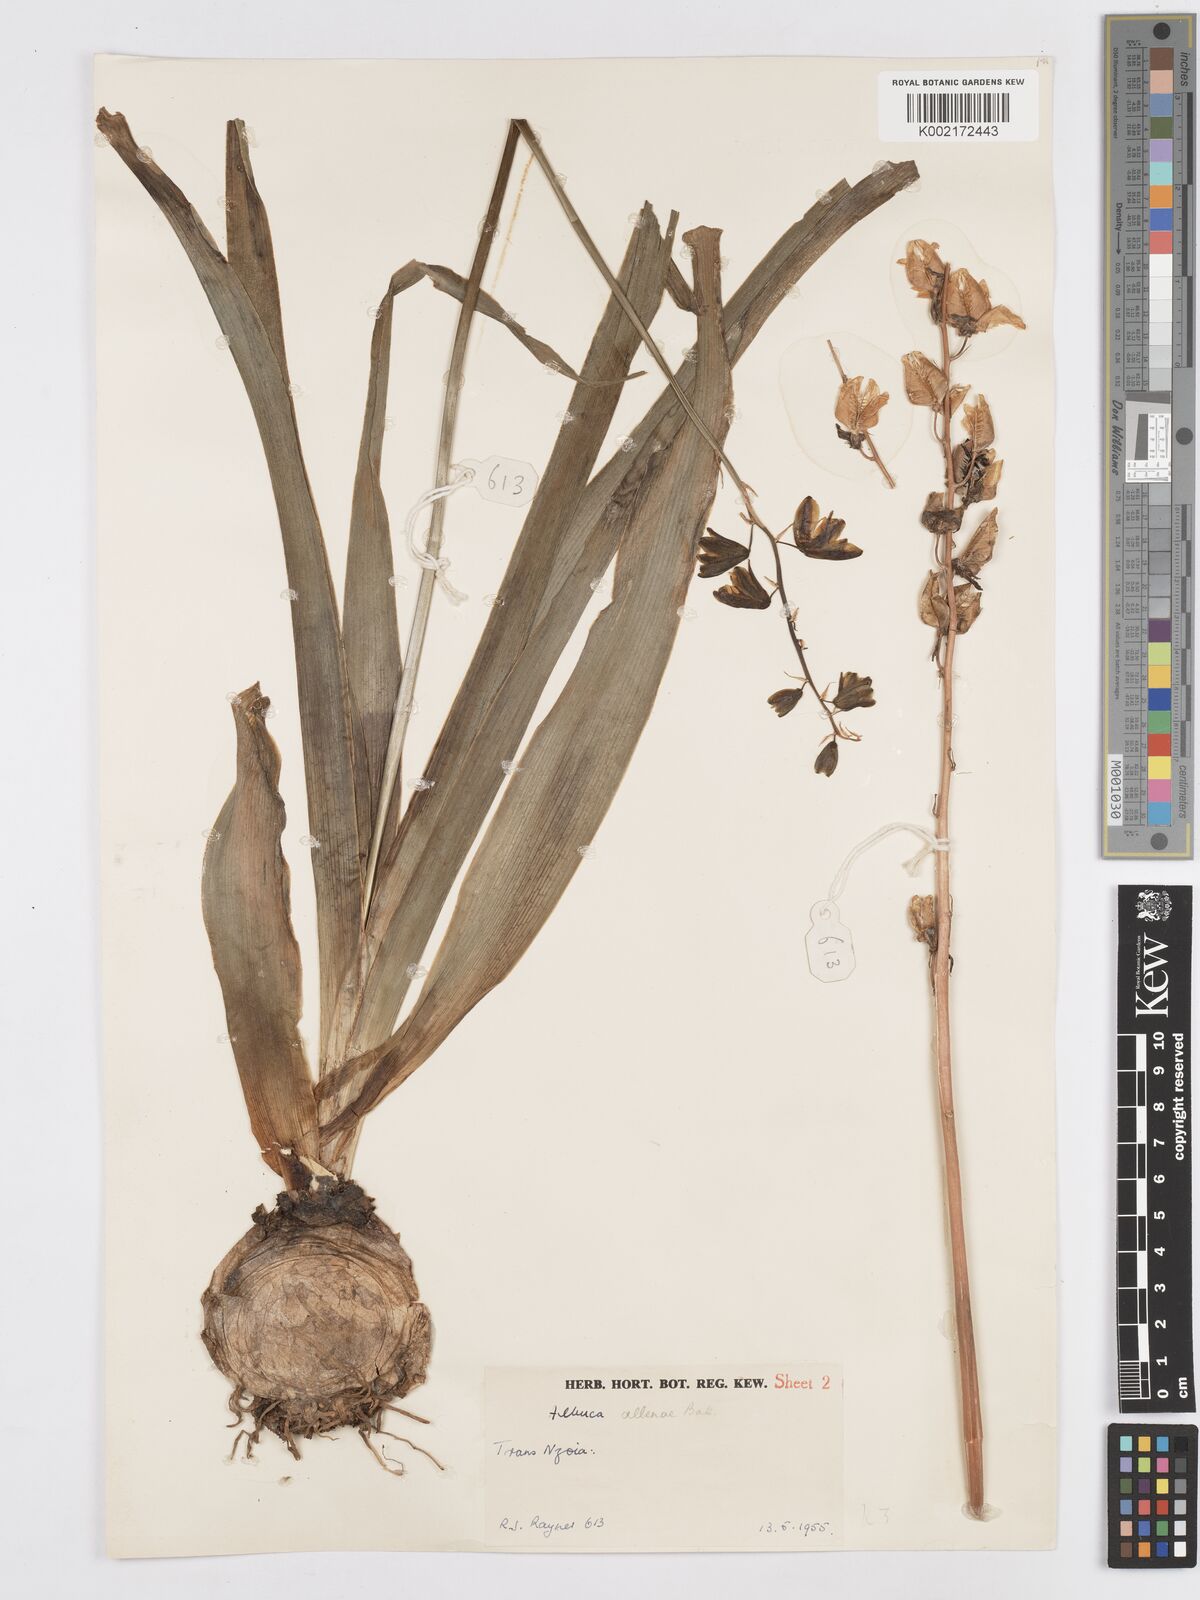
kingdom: Plantae
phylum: Tracheophyta
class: Liliopsida
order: Asparagales
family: Asparagaceae
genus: Albuca
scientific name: Albuca abyssinica
